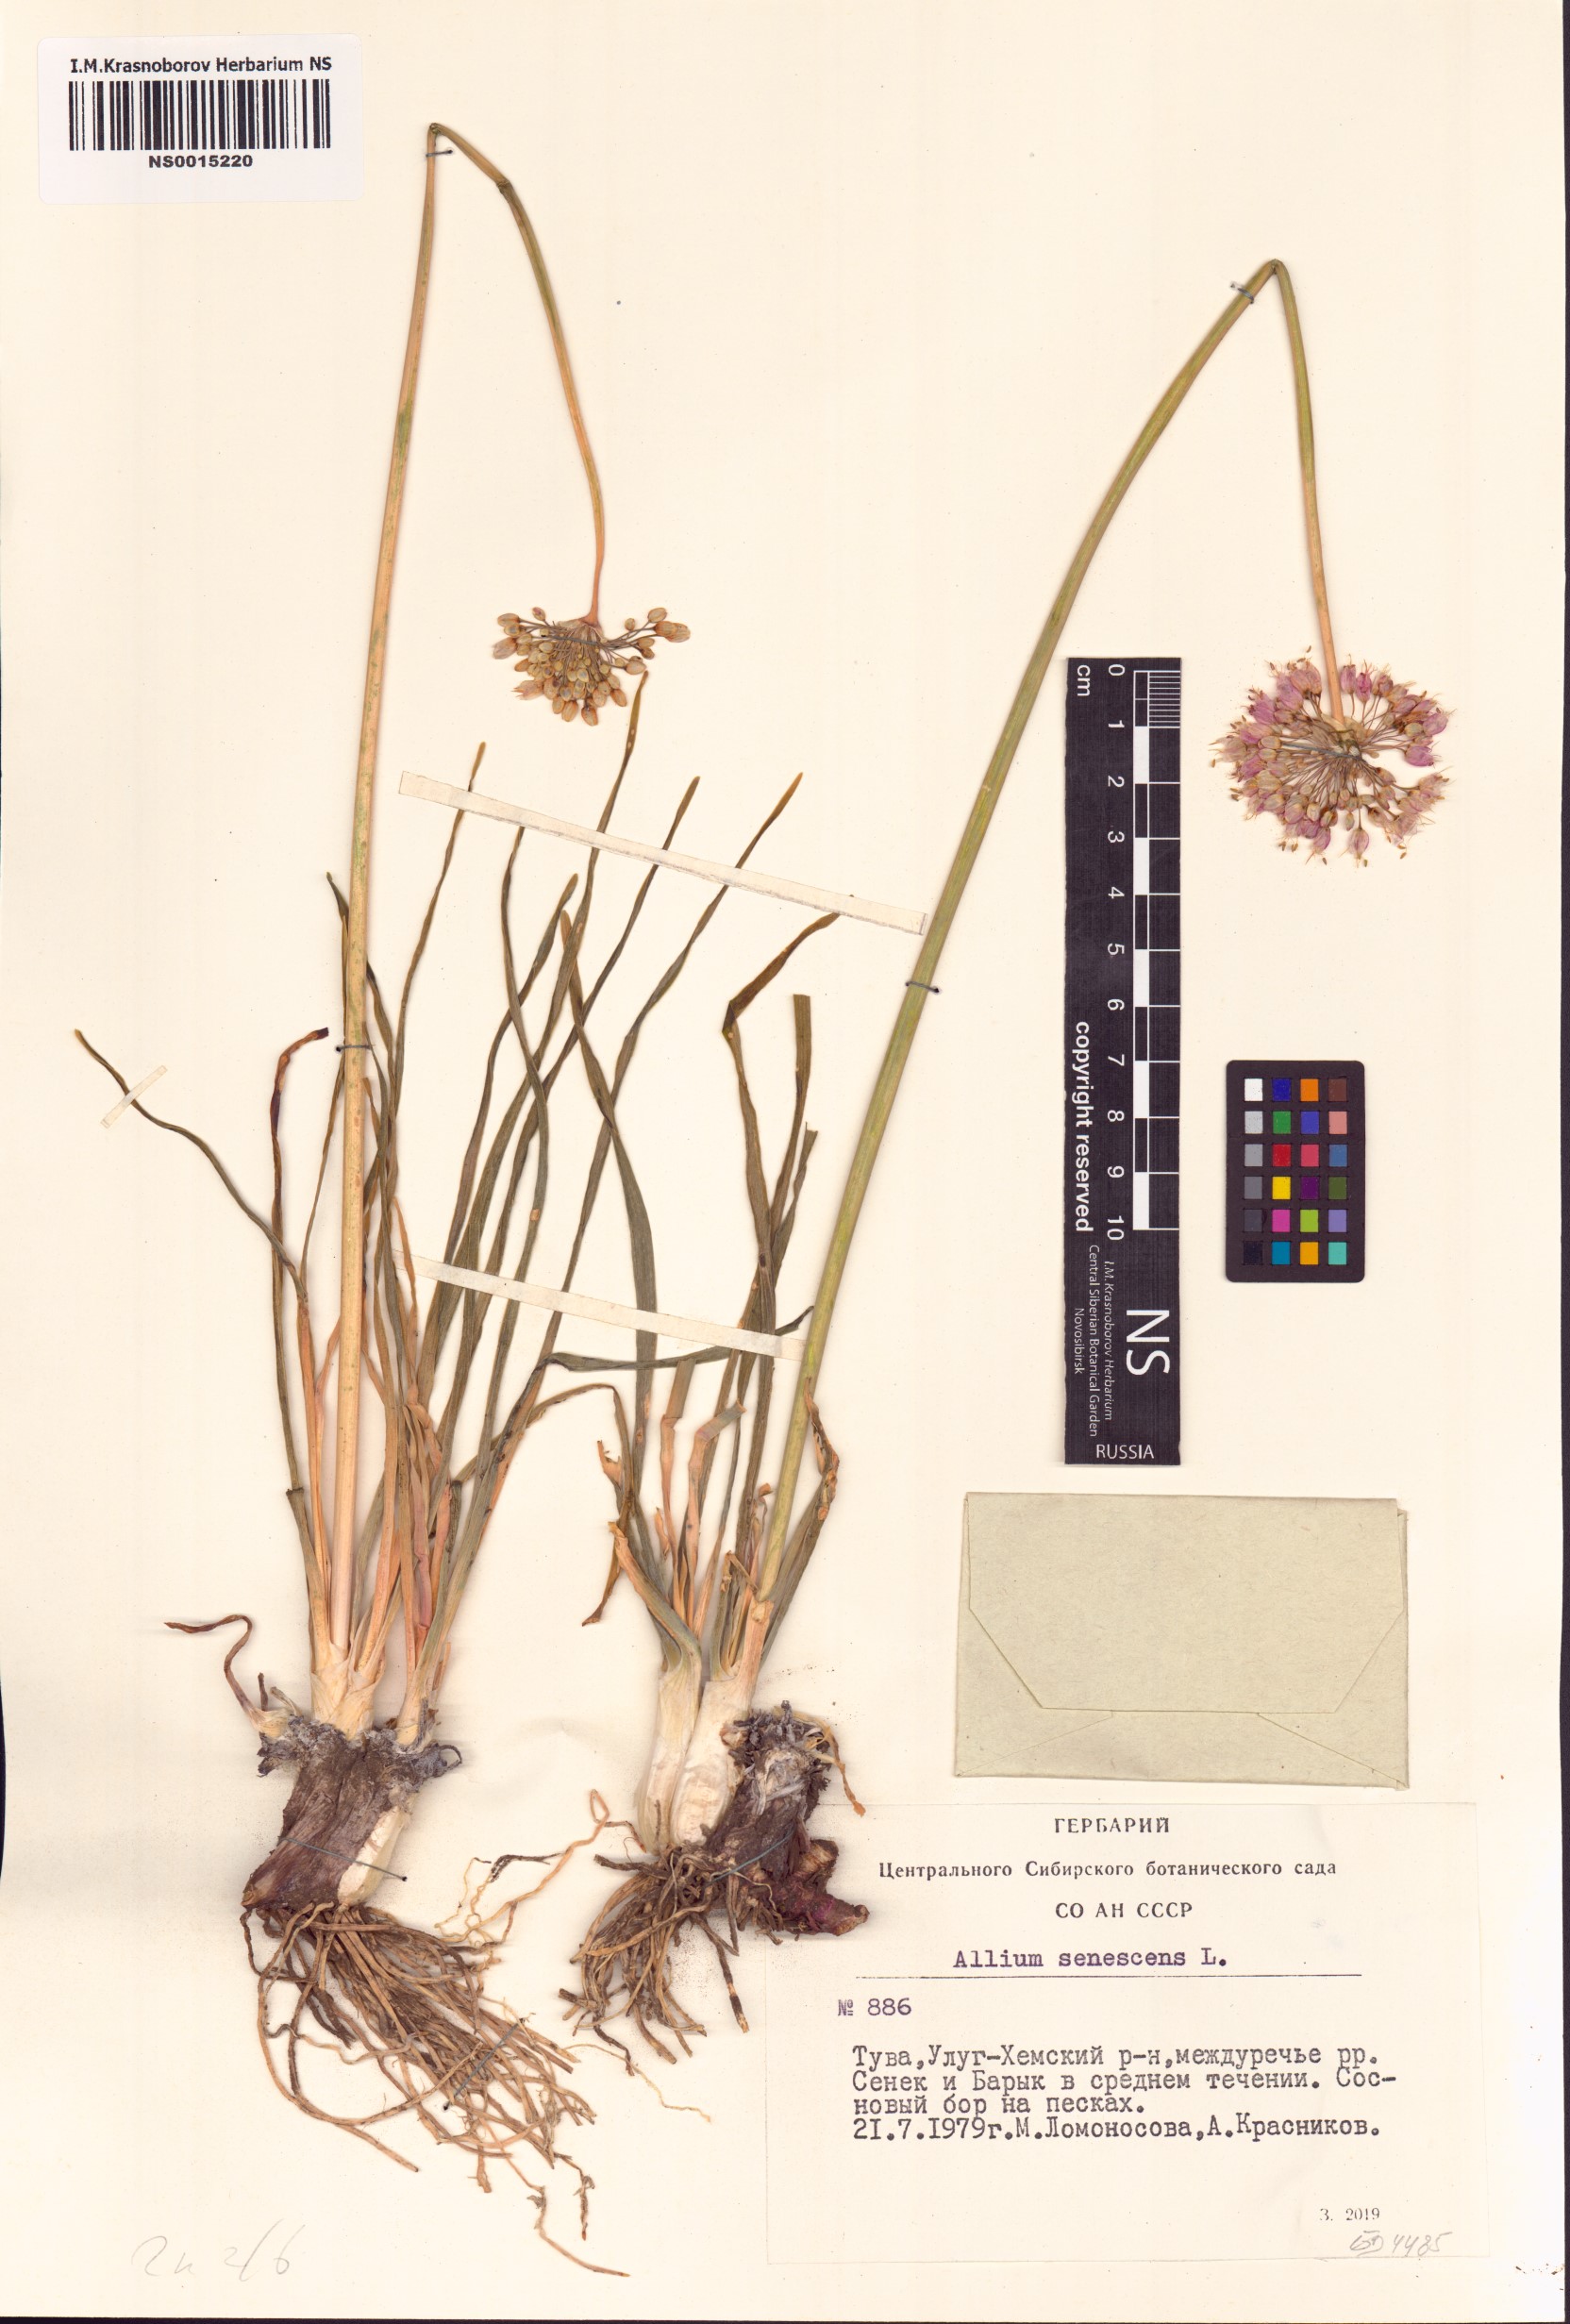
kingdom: Plantae
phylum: Tracheophyta
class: Liliopsida
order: Asparagales
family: Amaryllidaceae
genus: Allium
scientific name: Allium senescens
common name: German garlic
